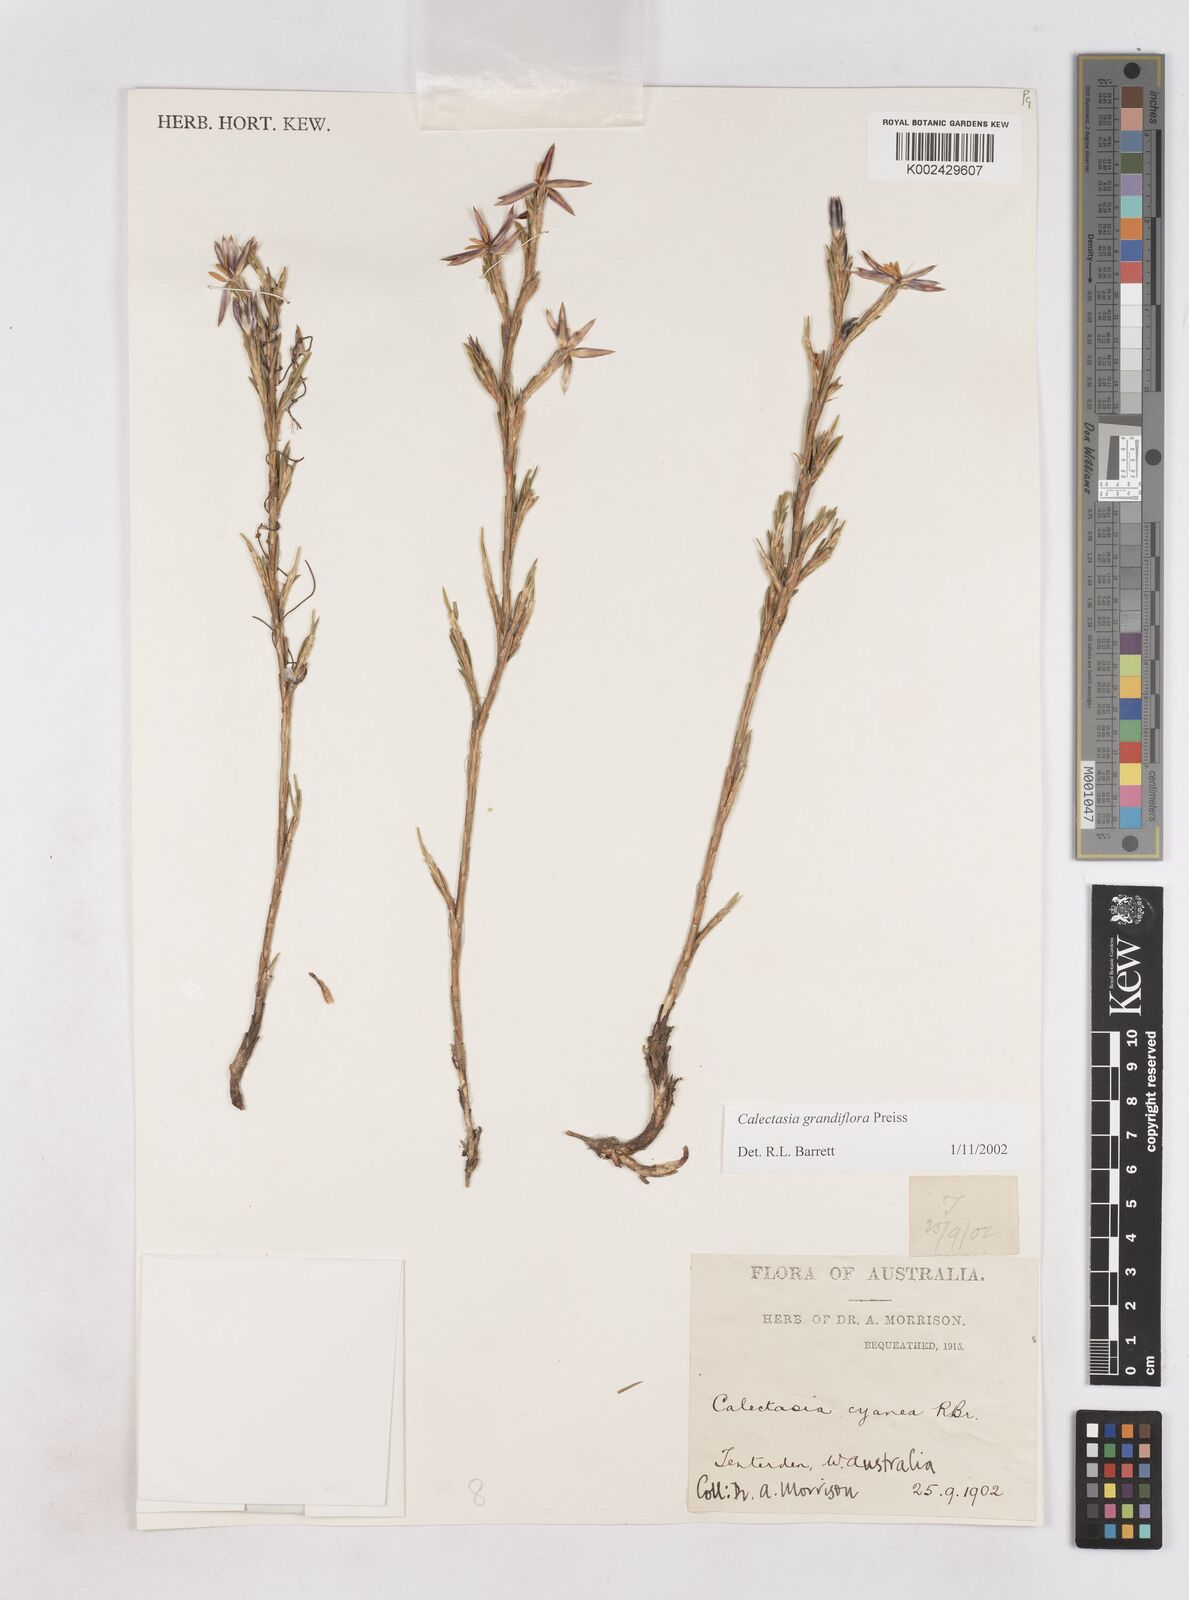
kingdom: Plantae
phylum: Tracheophyta
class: Liliopsida
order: Arecales
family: Dasypogonaceae
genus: Calectasia
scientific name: Calectasia grandiflora
